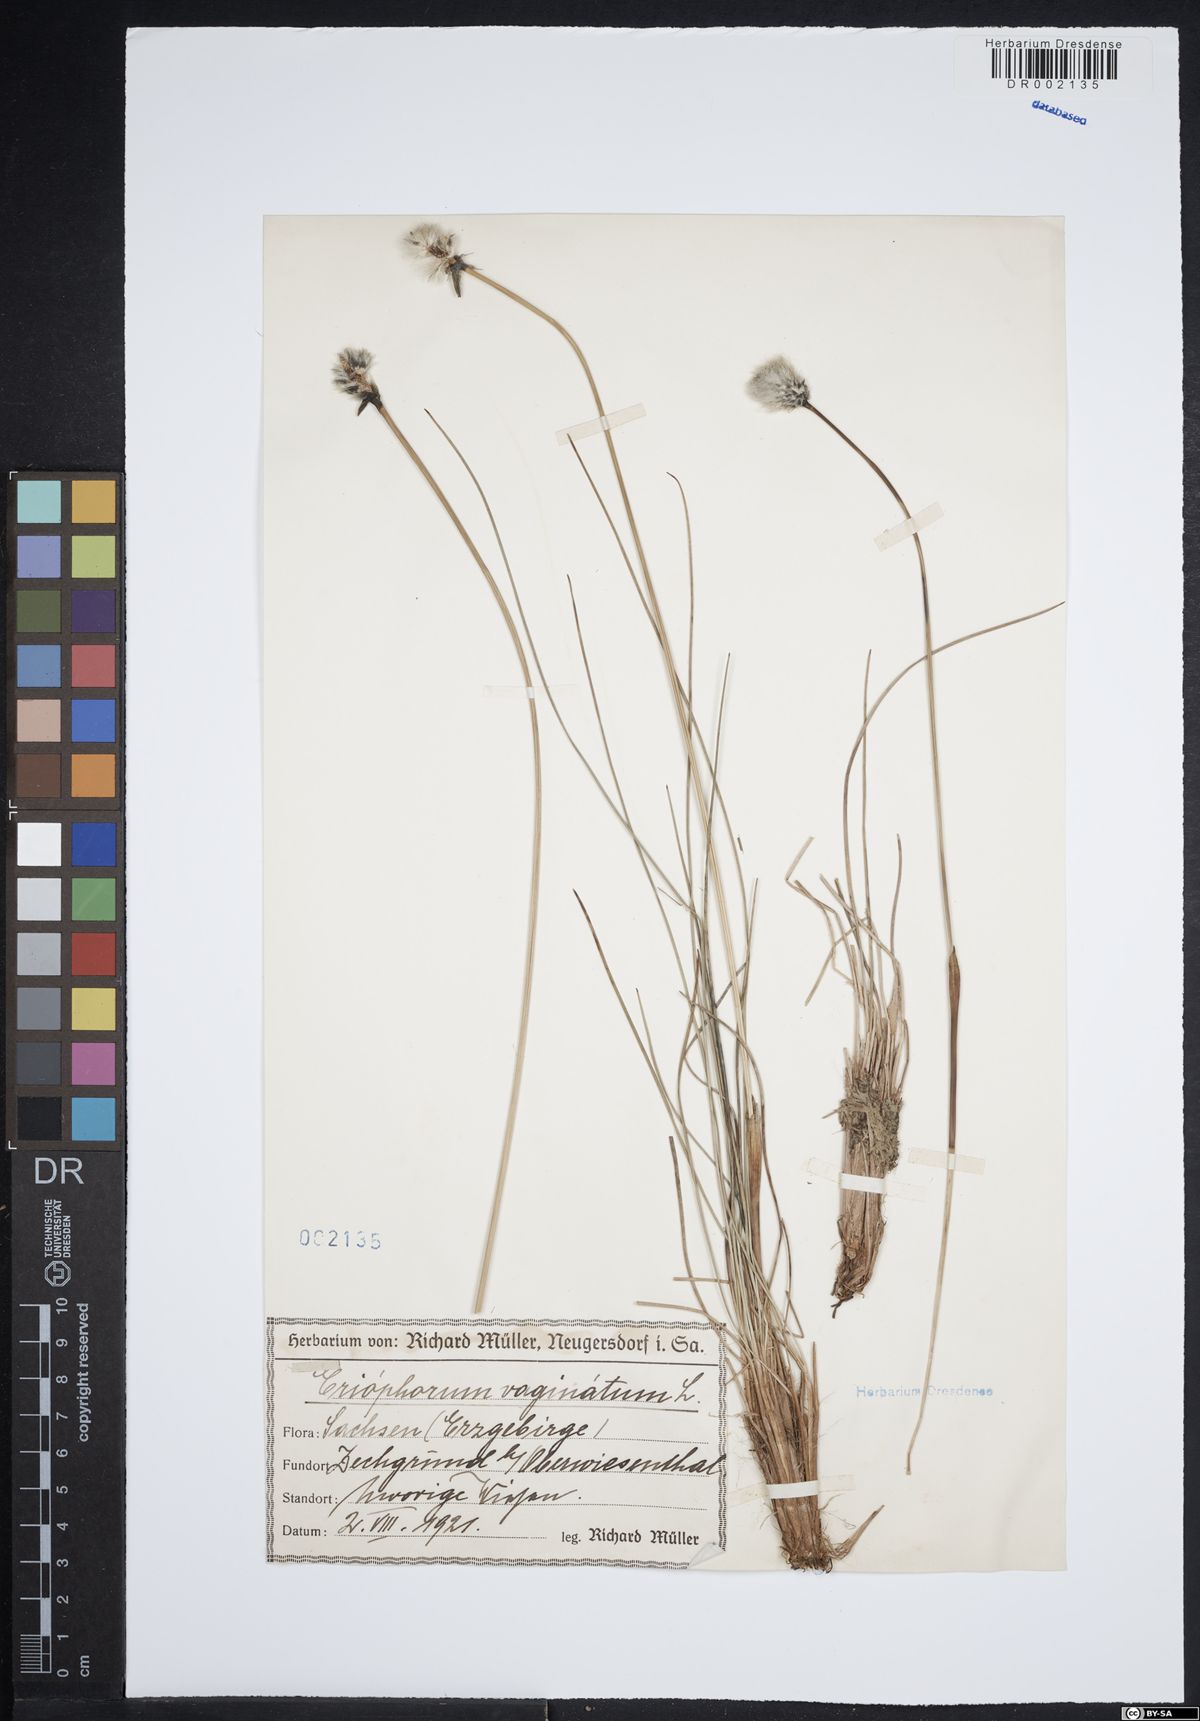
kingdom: Plantae
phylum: Tracheophyta
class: Liliopsida
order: Poales
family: Cyperaceae
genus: Eriophorum
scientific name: Eriophorum vaginatum
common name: Hare's-tail cottongrass
